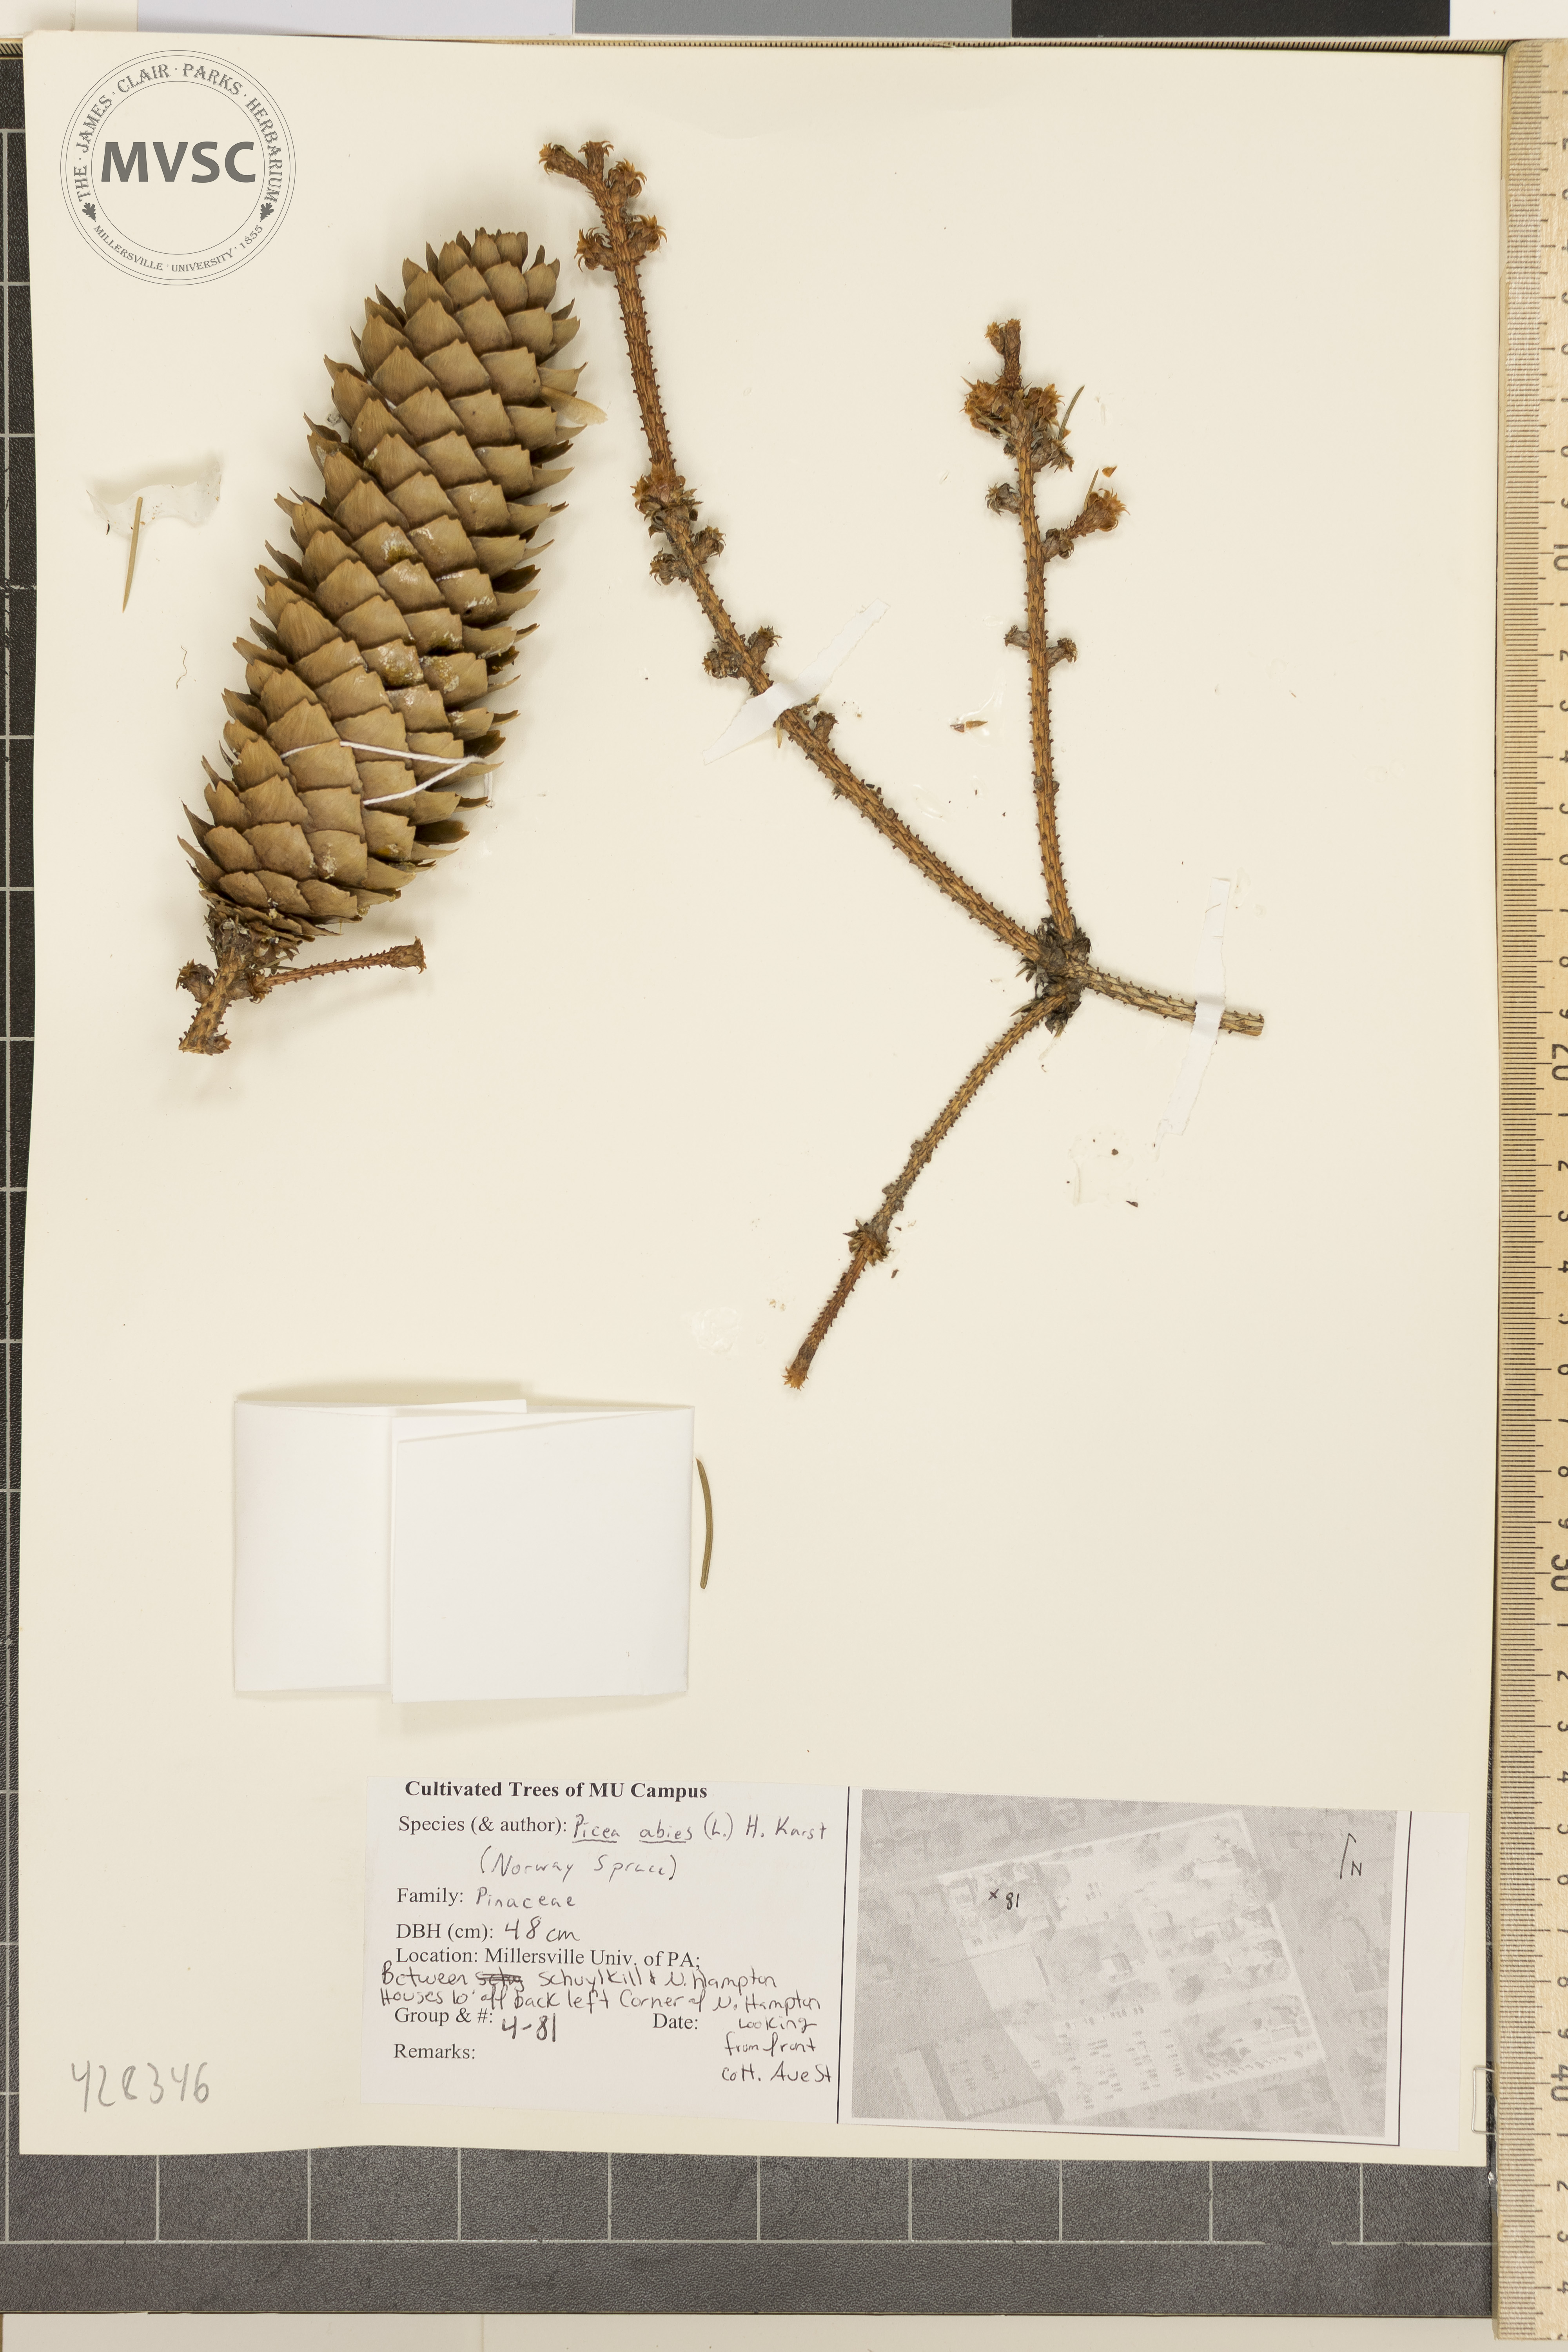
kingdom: Plantae
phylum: Tracheophyta
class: Pinopsida
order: Pinales
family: Pinaceae
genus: Picea
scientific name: Picea abies
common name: Norway Spruce
